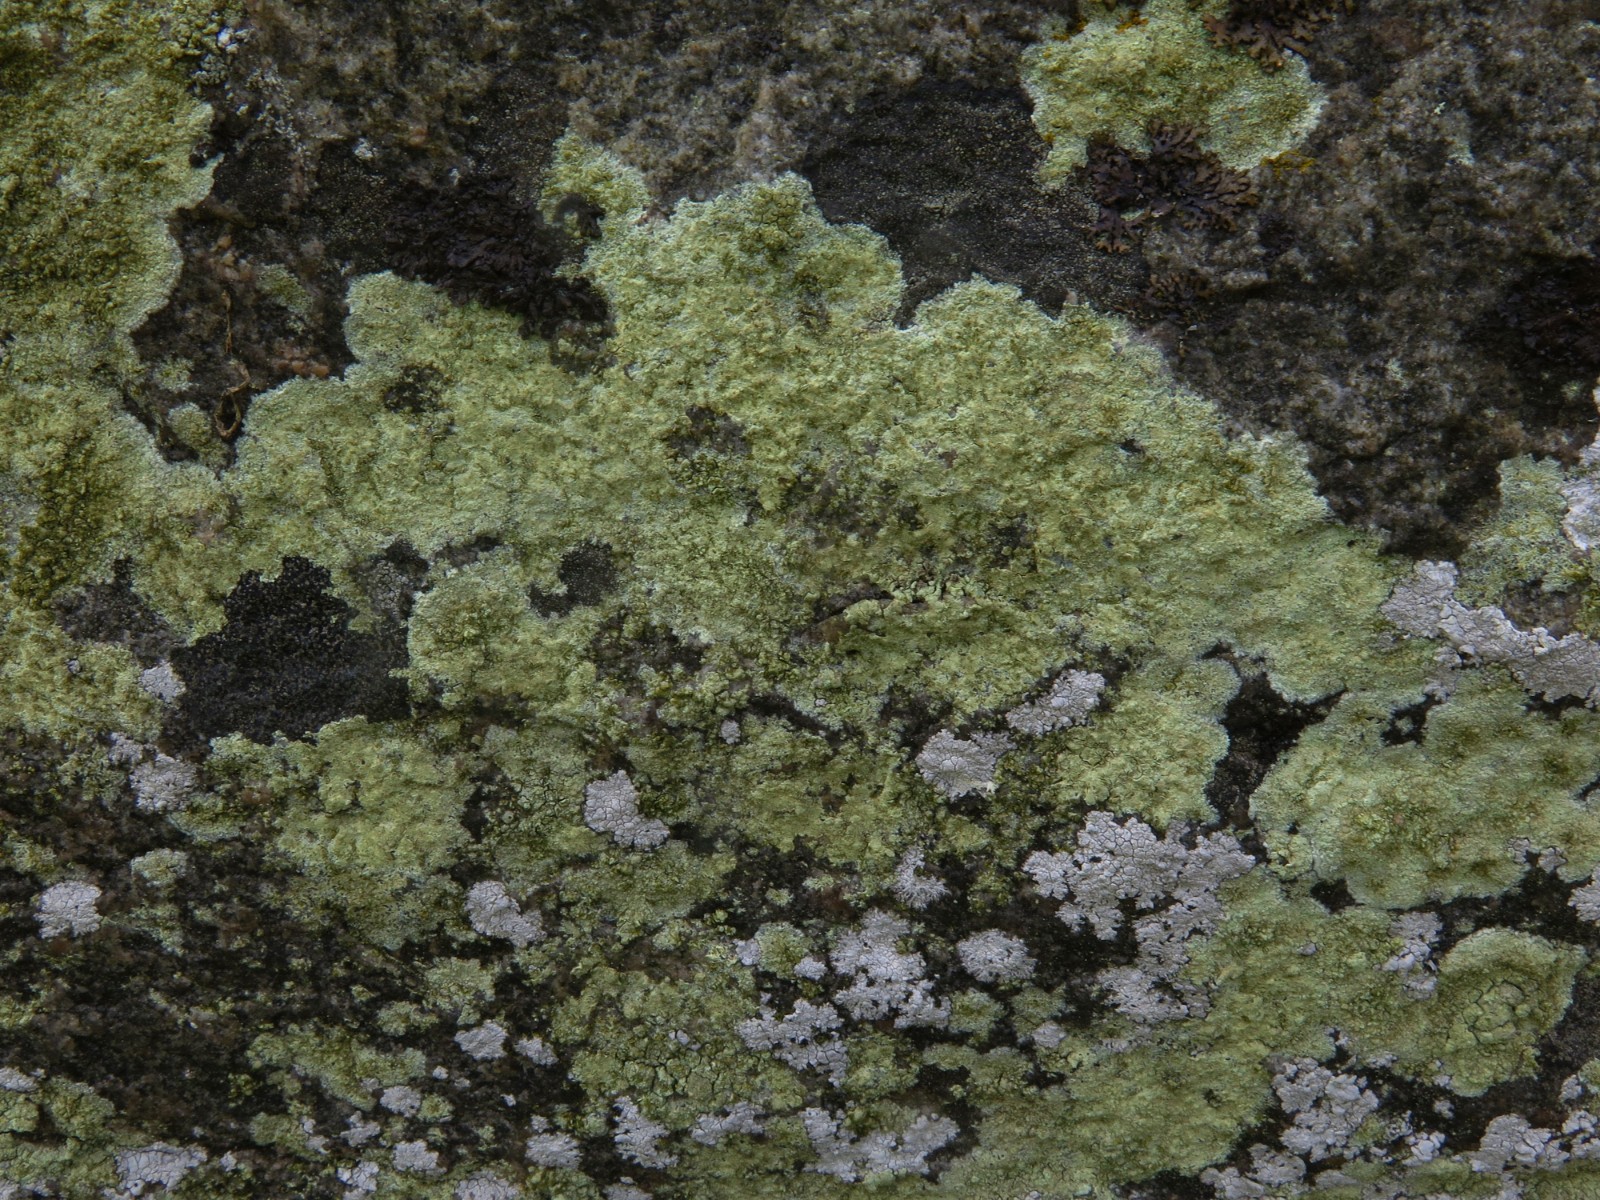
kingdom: Fungi
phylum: Ascomycota
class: Lecanoromycetes
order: Lecanorales
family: Lecanoraceae
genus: Glaucomaria
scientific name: Glaucomaria sulphurea
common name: svovlgul kantskivelav
